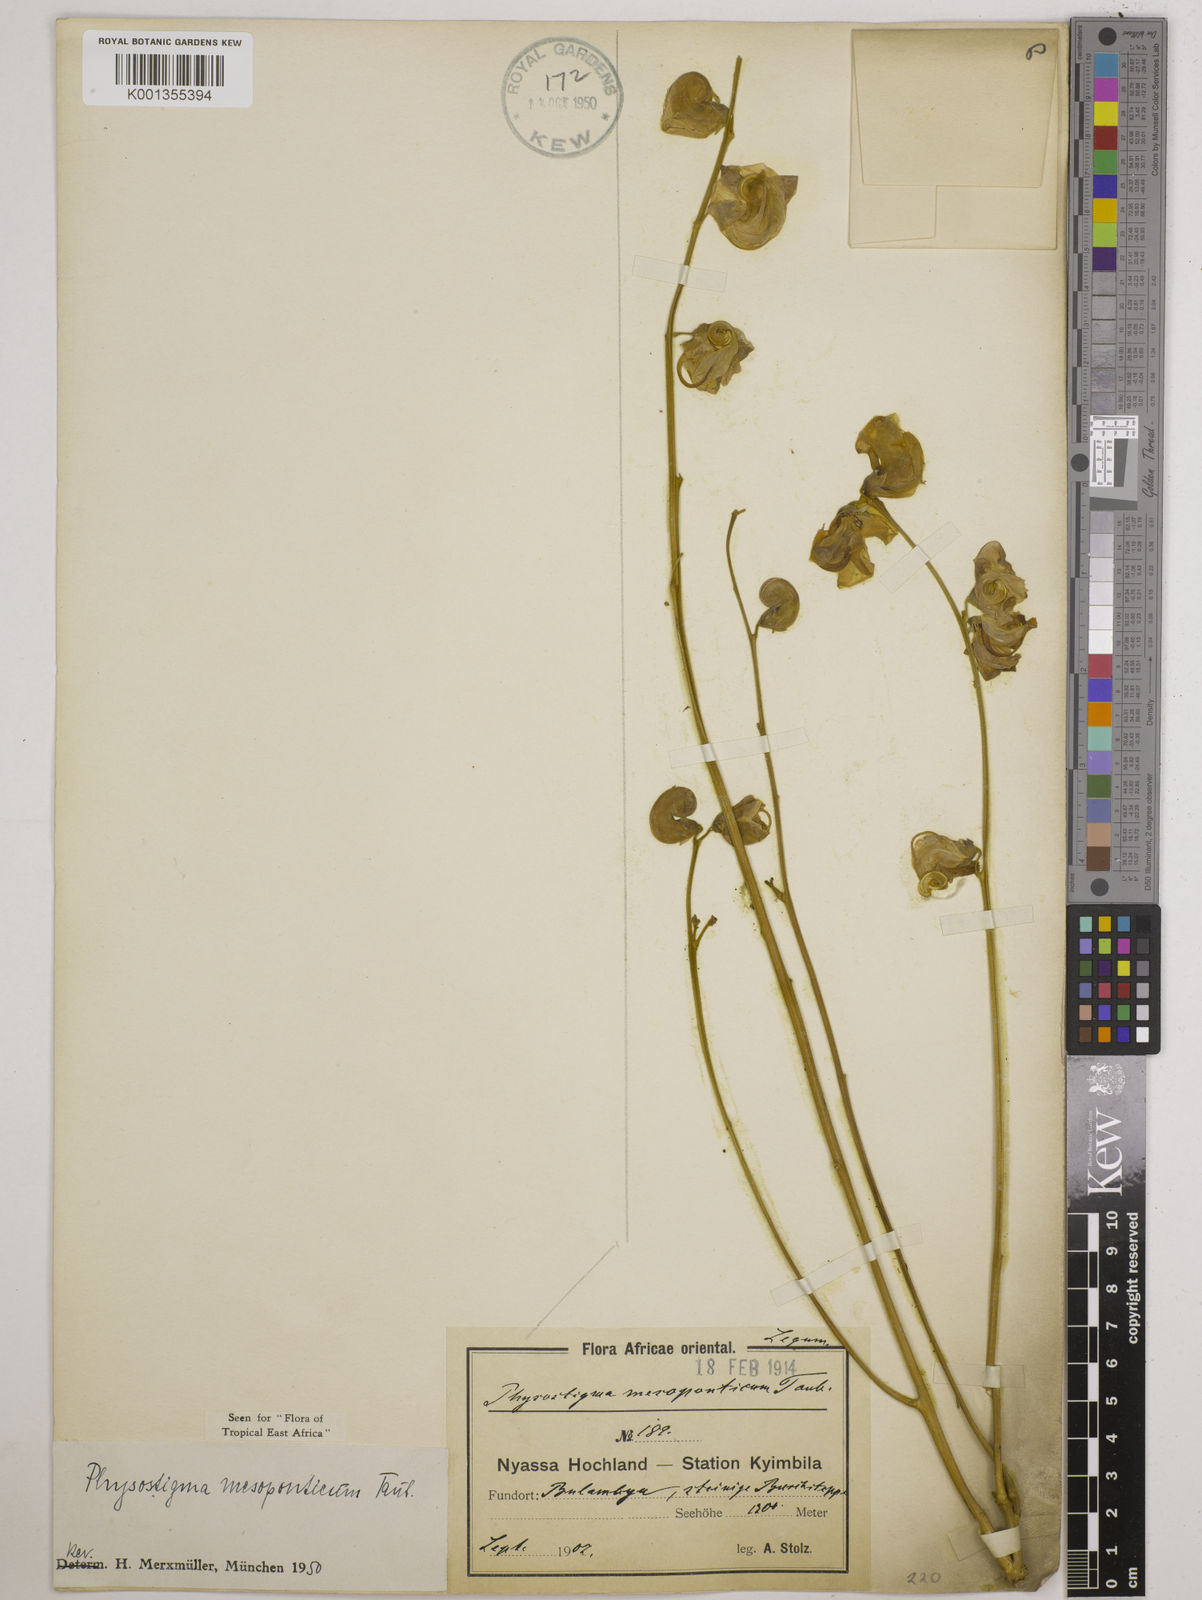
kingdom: Plantae
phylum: Tracheophyta
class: Magnoliopsida
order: Fabales
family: Fabaceae
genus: Physostigma
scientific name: Physostigma mesoponticum
